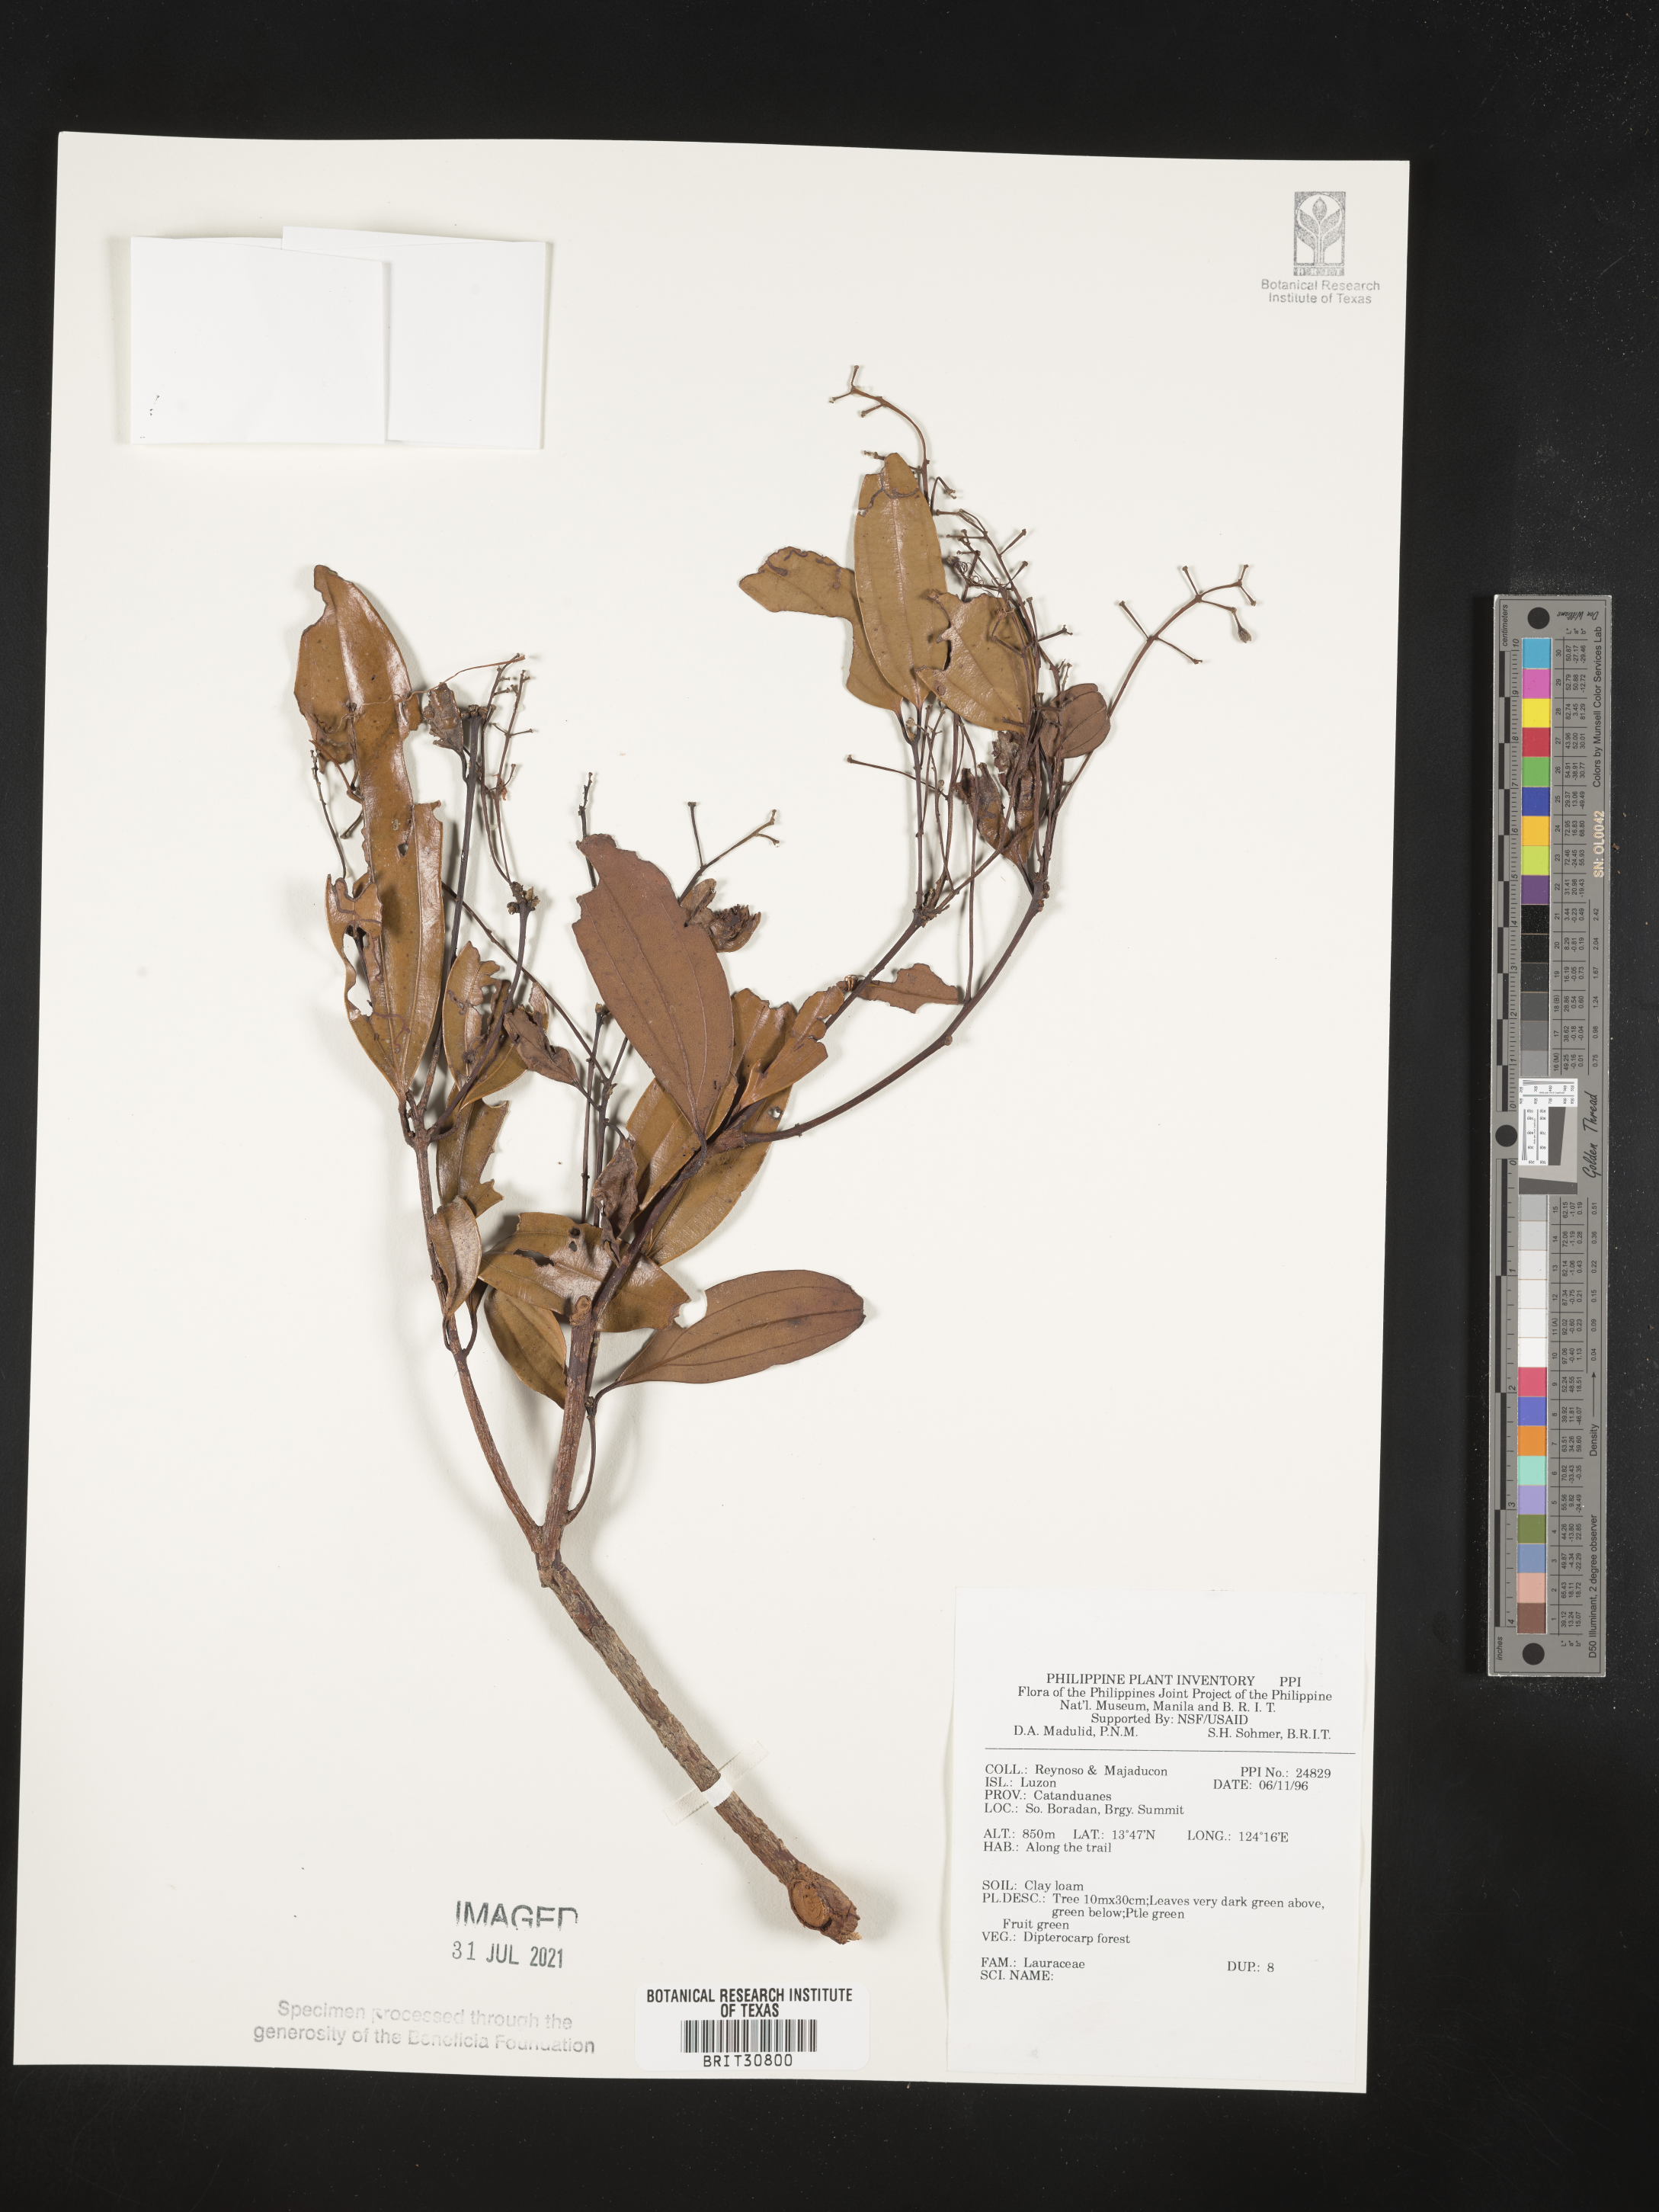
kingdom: Plantae
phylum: Tracheophyta
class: Magnoliopsida
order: Laurales
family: Lauraceae
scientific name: Lauraceae
